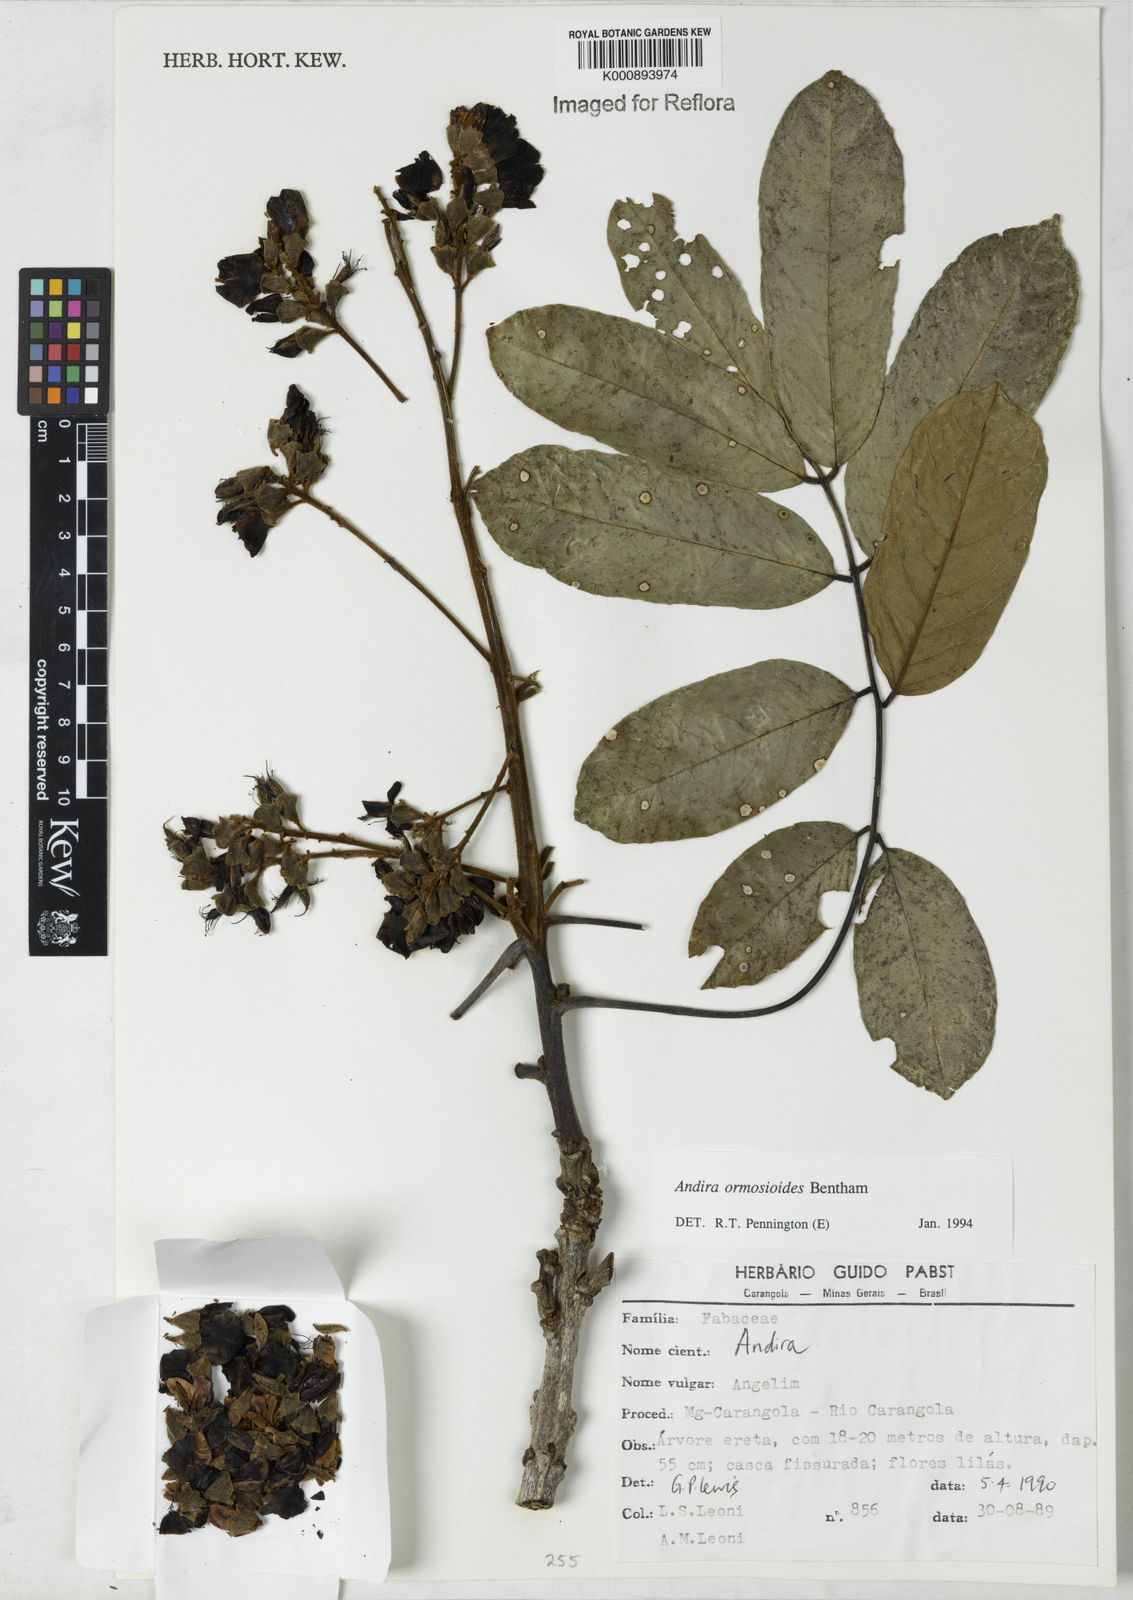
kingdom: Plantae
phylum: Tracheophyta
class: Magnoliopsida
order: Fabales
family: Fabaceae
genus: Andira
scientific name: Andira ormosioides
